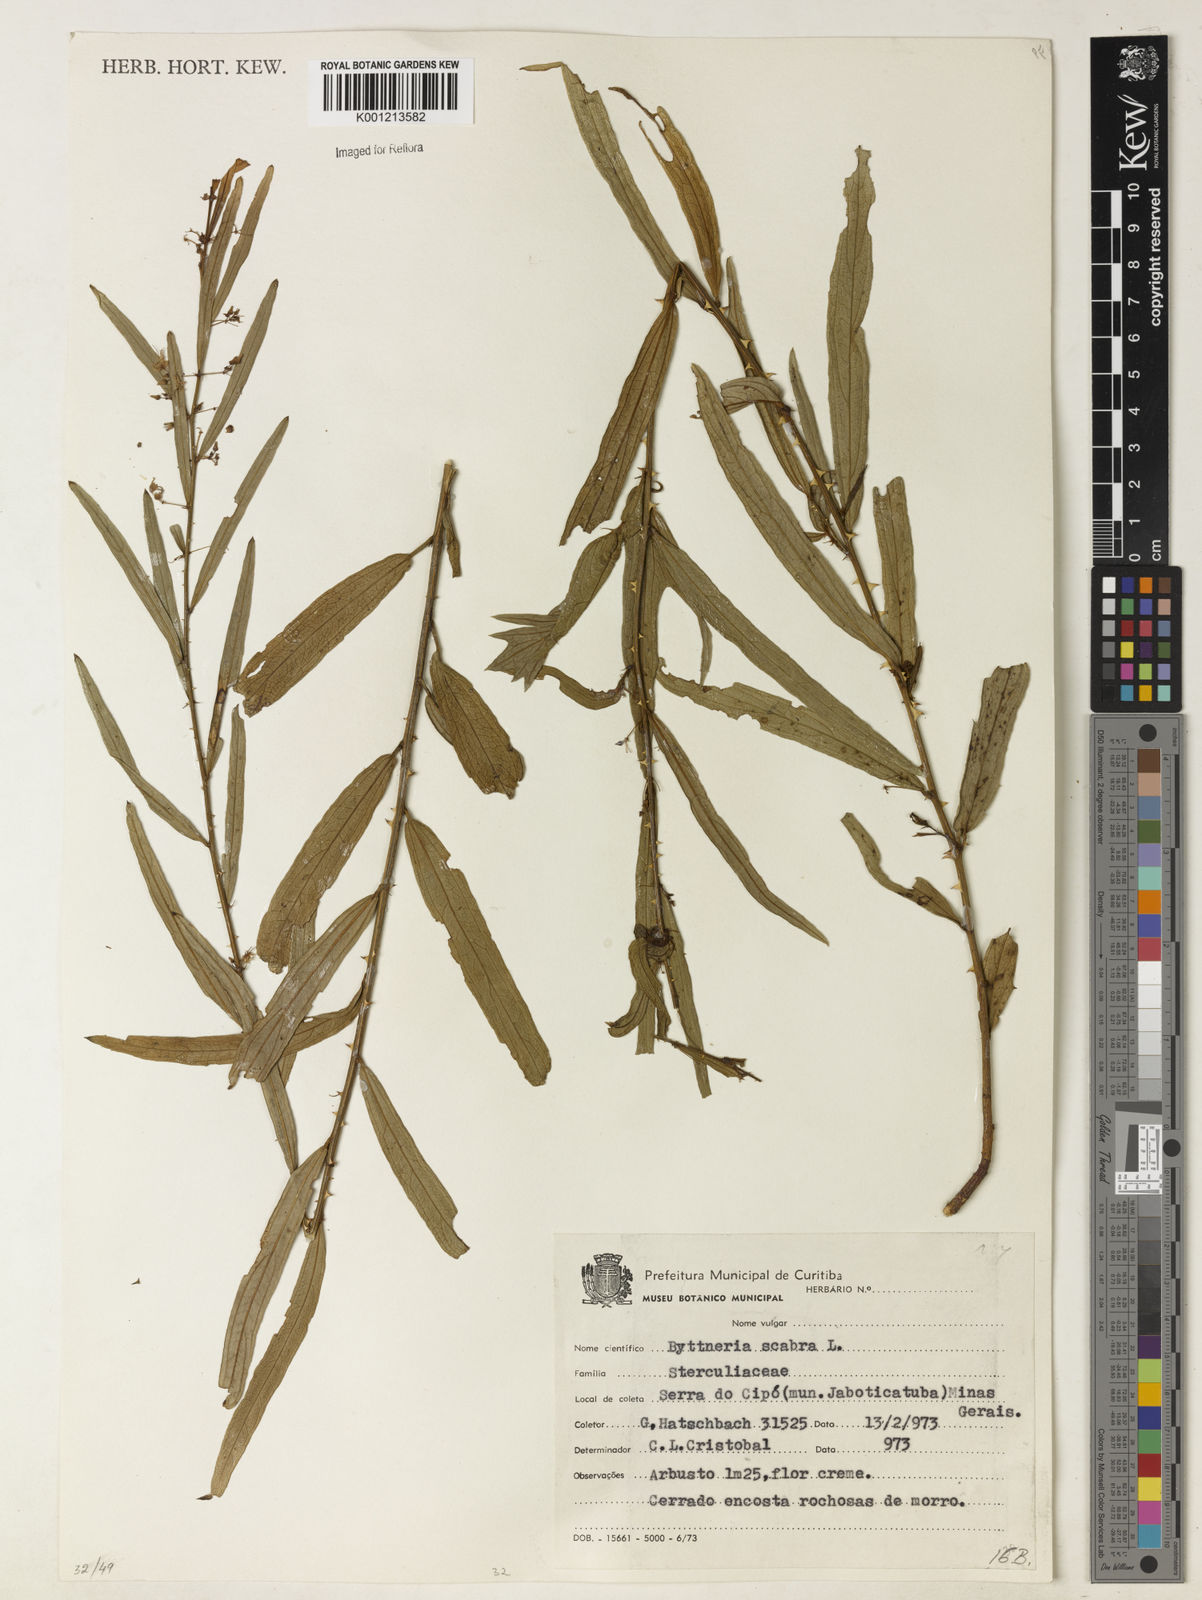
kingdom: Plantae
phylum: Tracheophyta
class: Magnoliopsida
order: Malvales
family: Malvaceae
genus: Byttneria
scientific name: Byttneria
